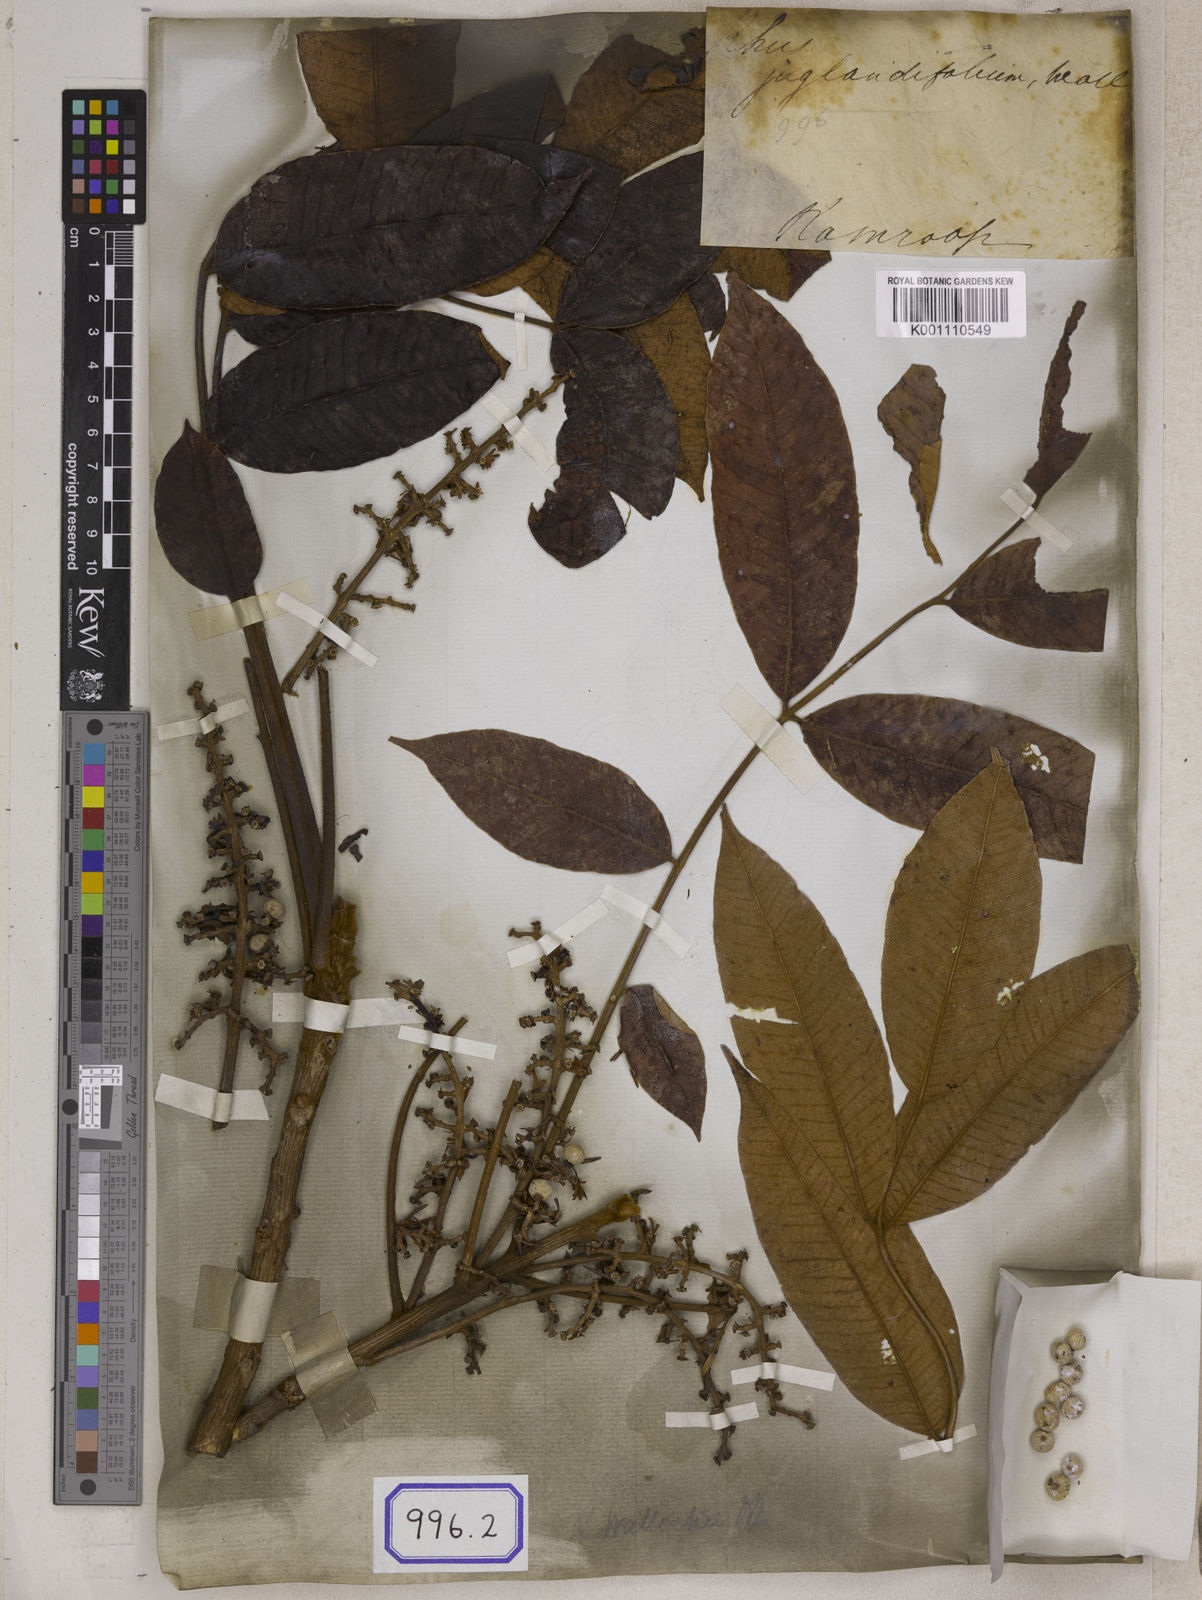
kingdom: Plantae
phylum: Tracheophyta
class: Magnoliopsida
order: Sapindales
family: Anacardiaceae
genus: Rhus
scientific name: Rhus
